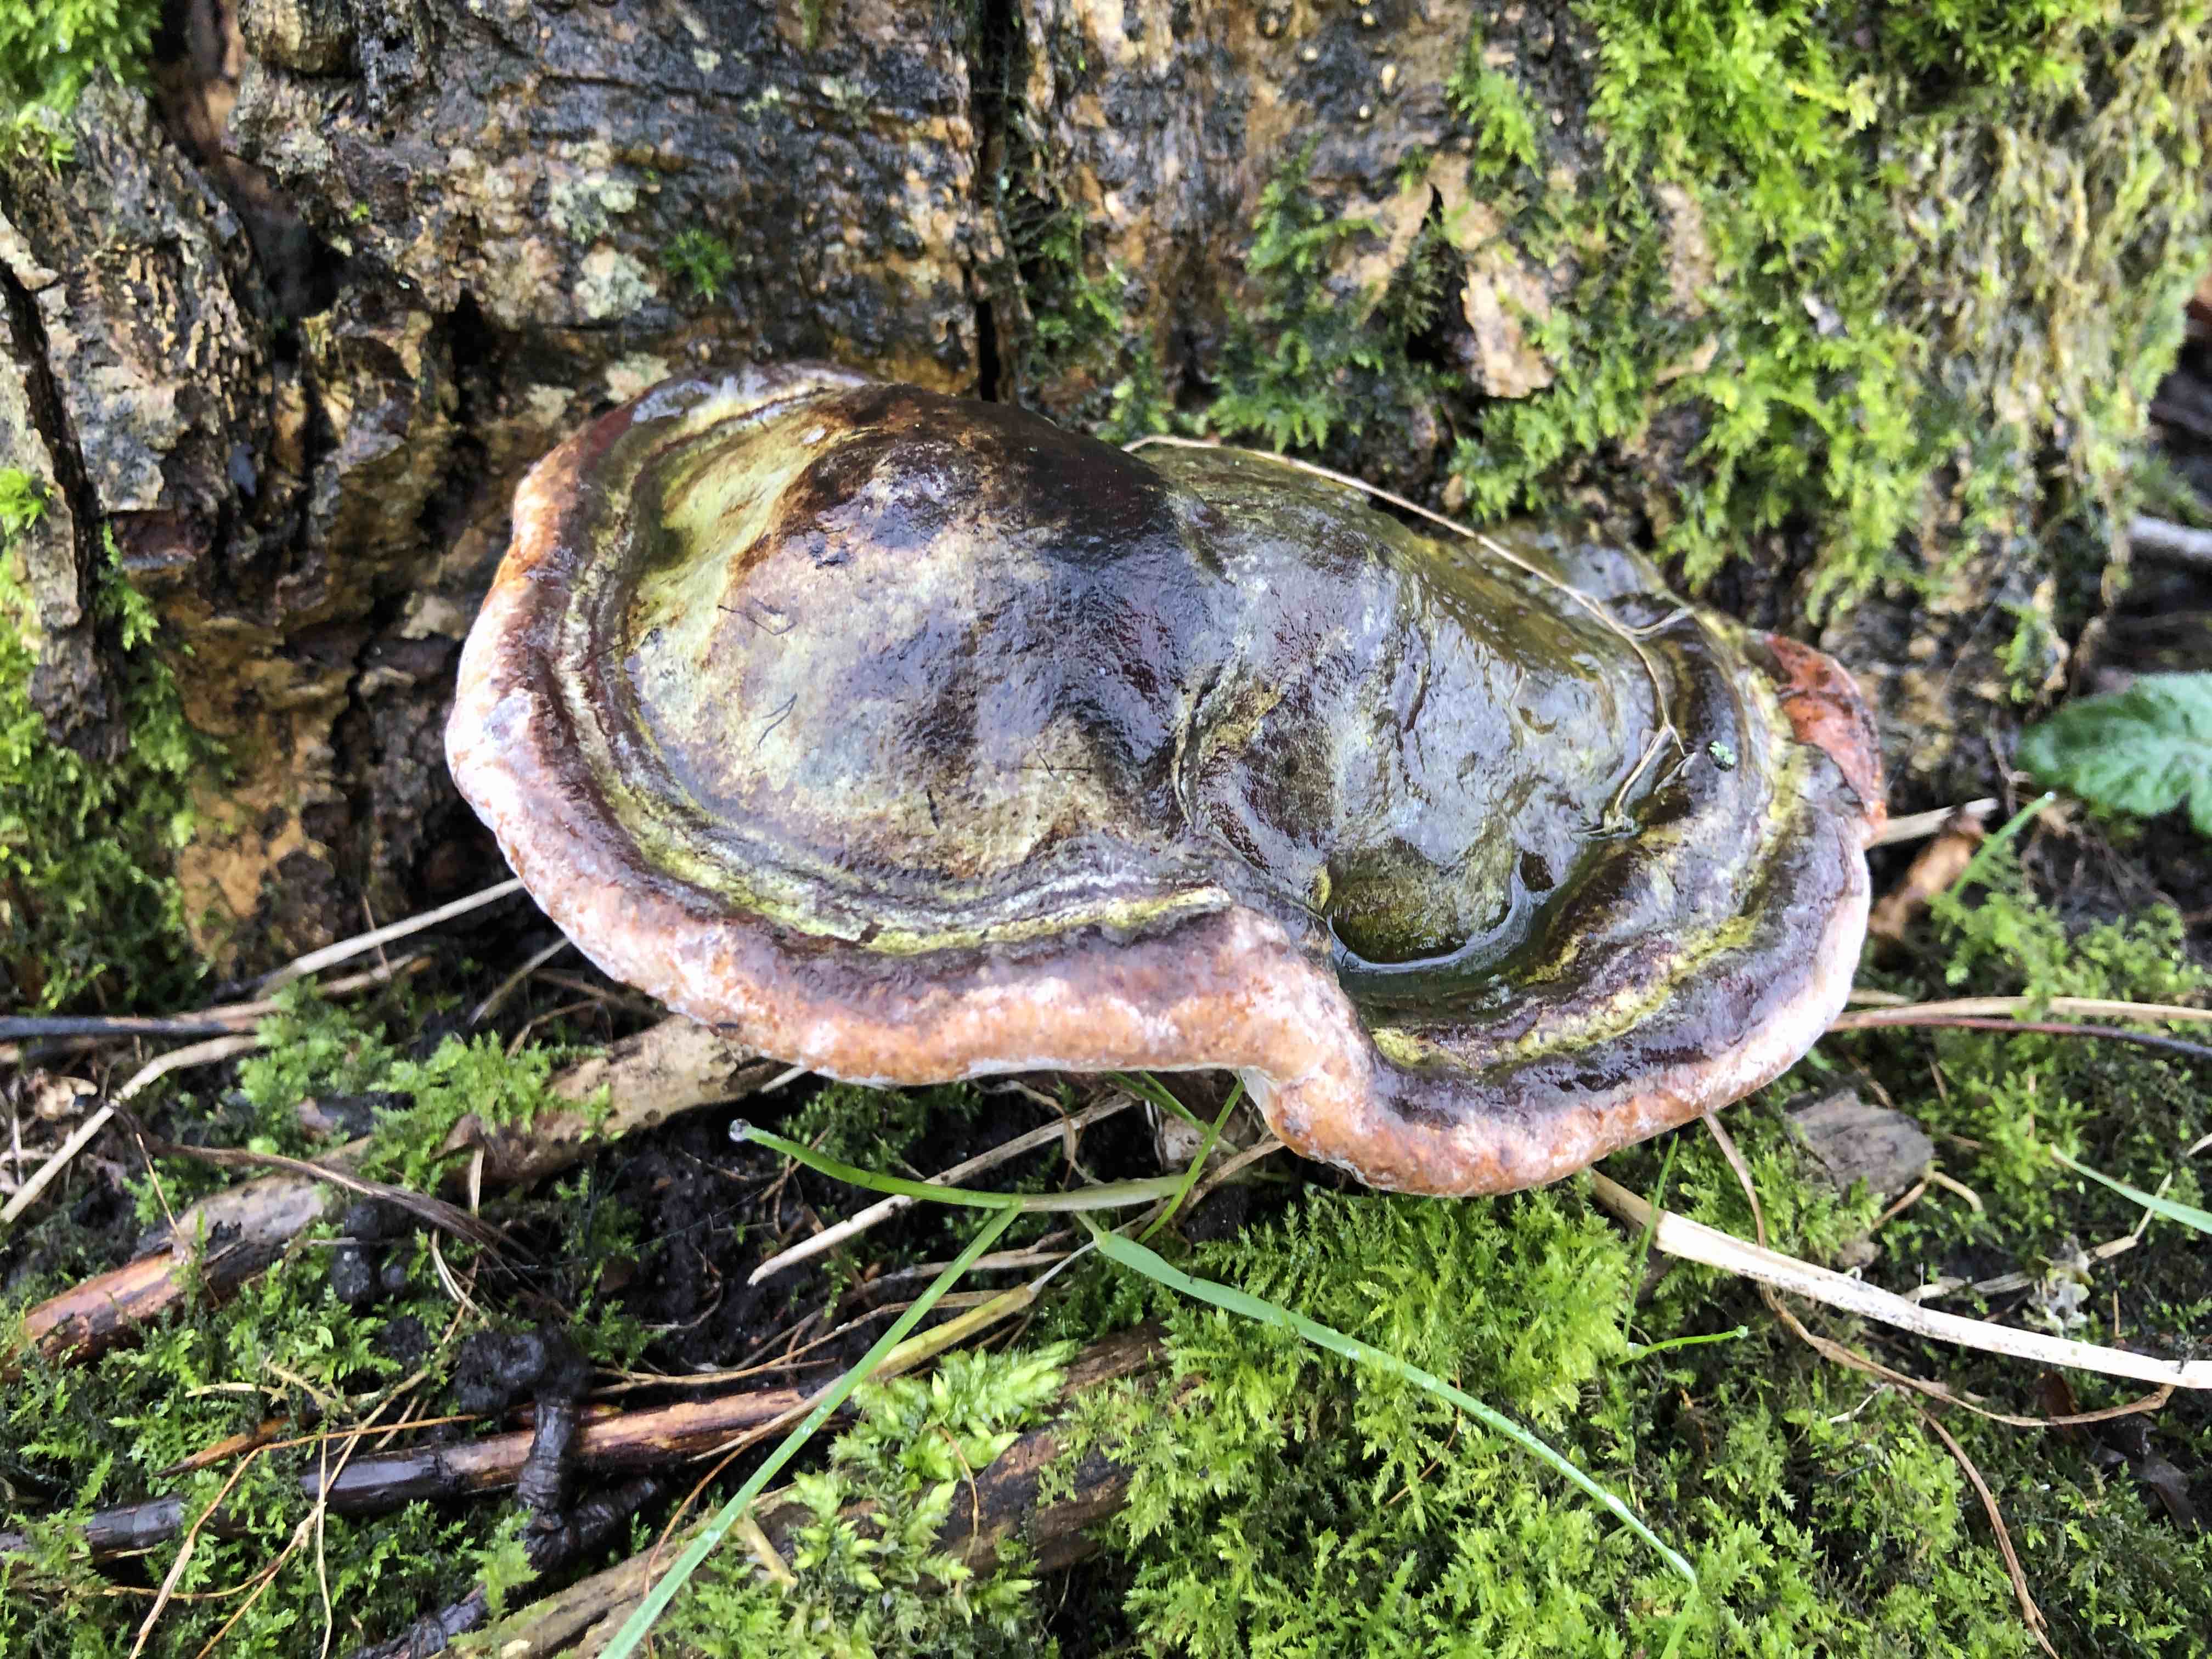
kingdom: Fungi
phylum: Basidiomycota
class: Agaricomycetes
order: Polyporales
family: Polyporaceae
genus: Ganoderma
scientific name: Ganoderma applanatum
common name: flad lakporesvamp
